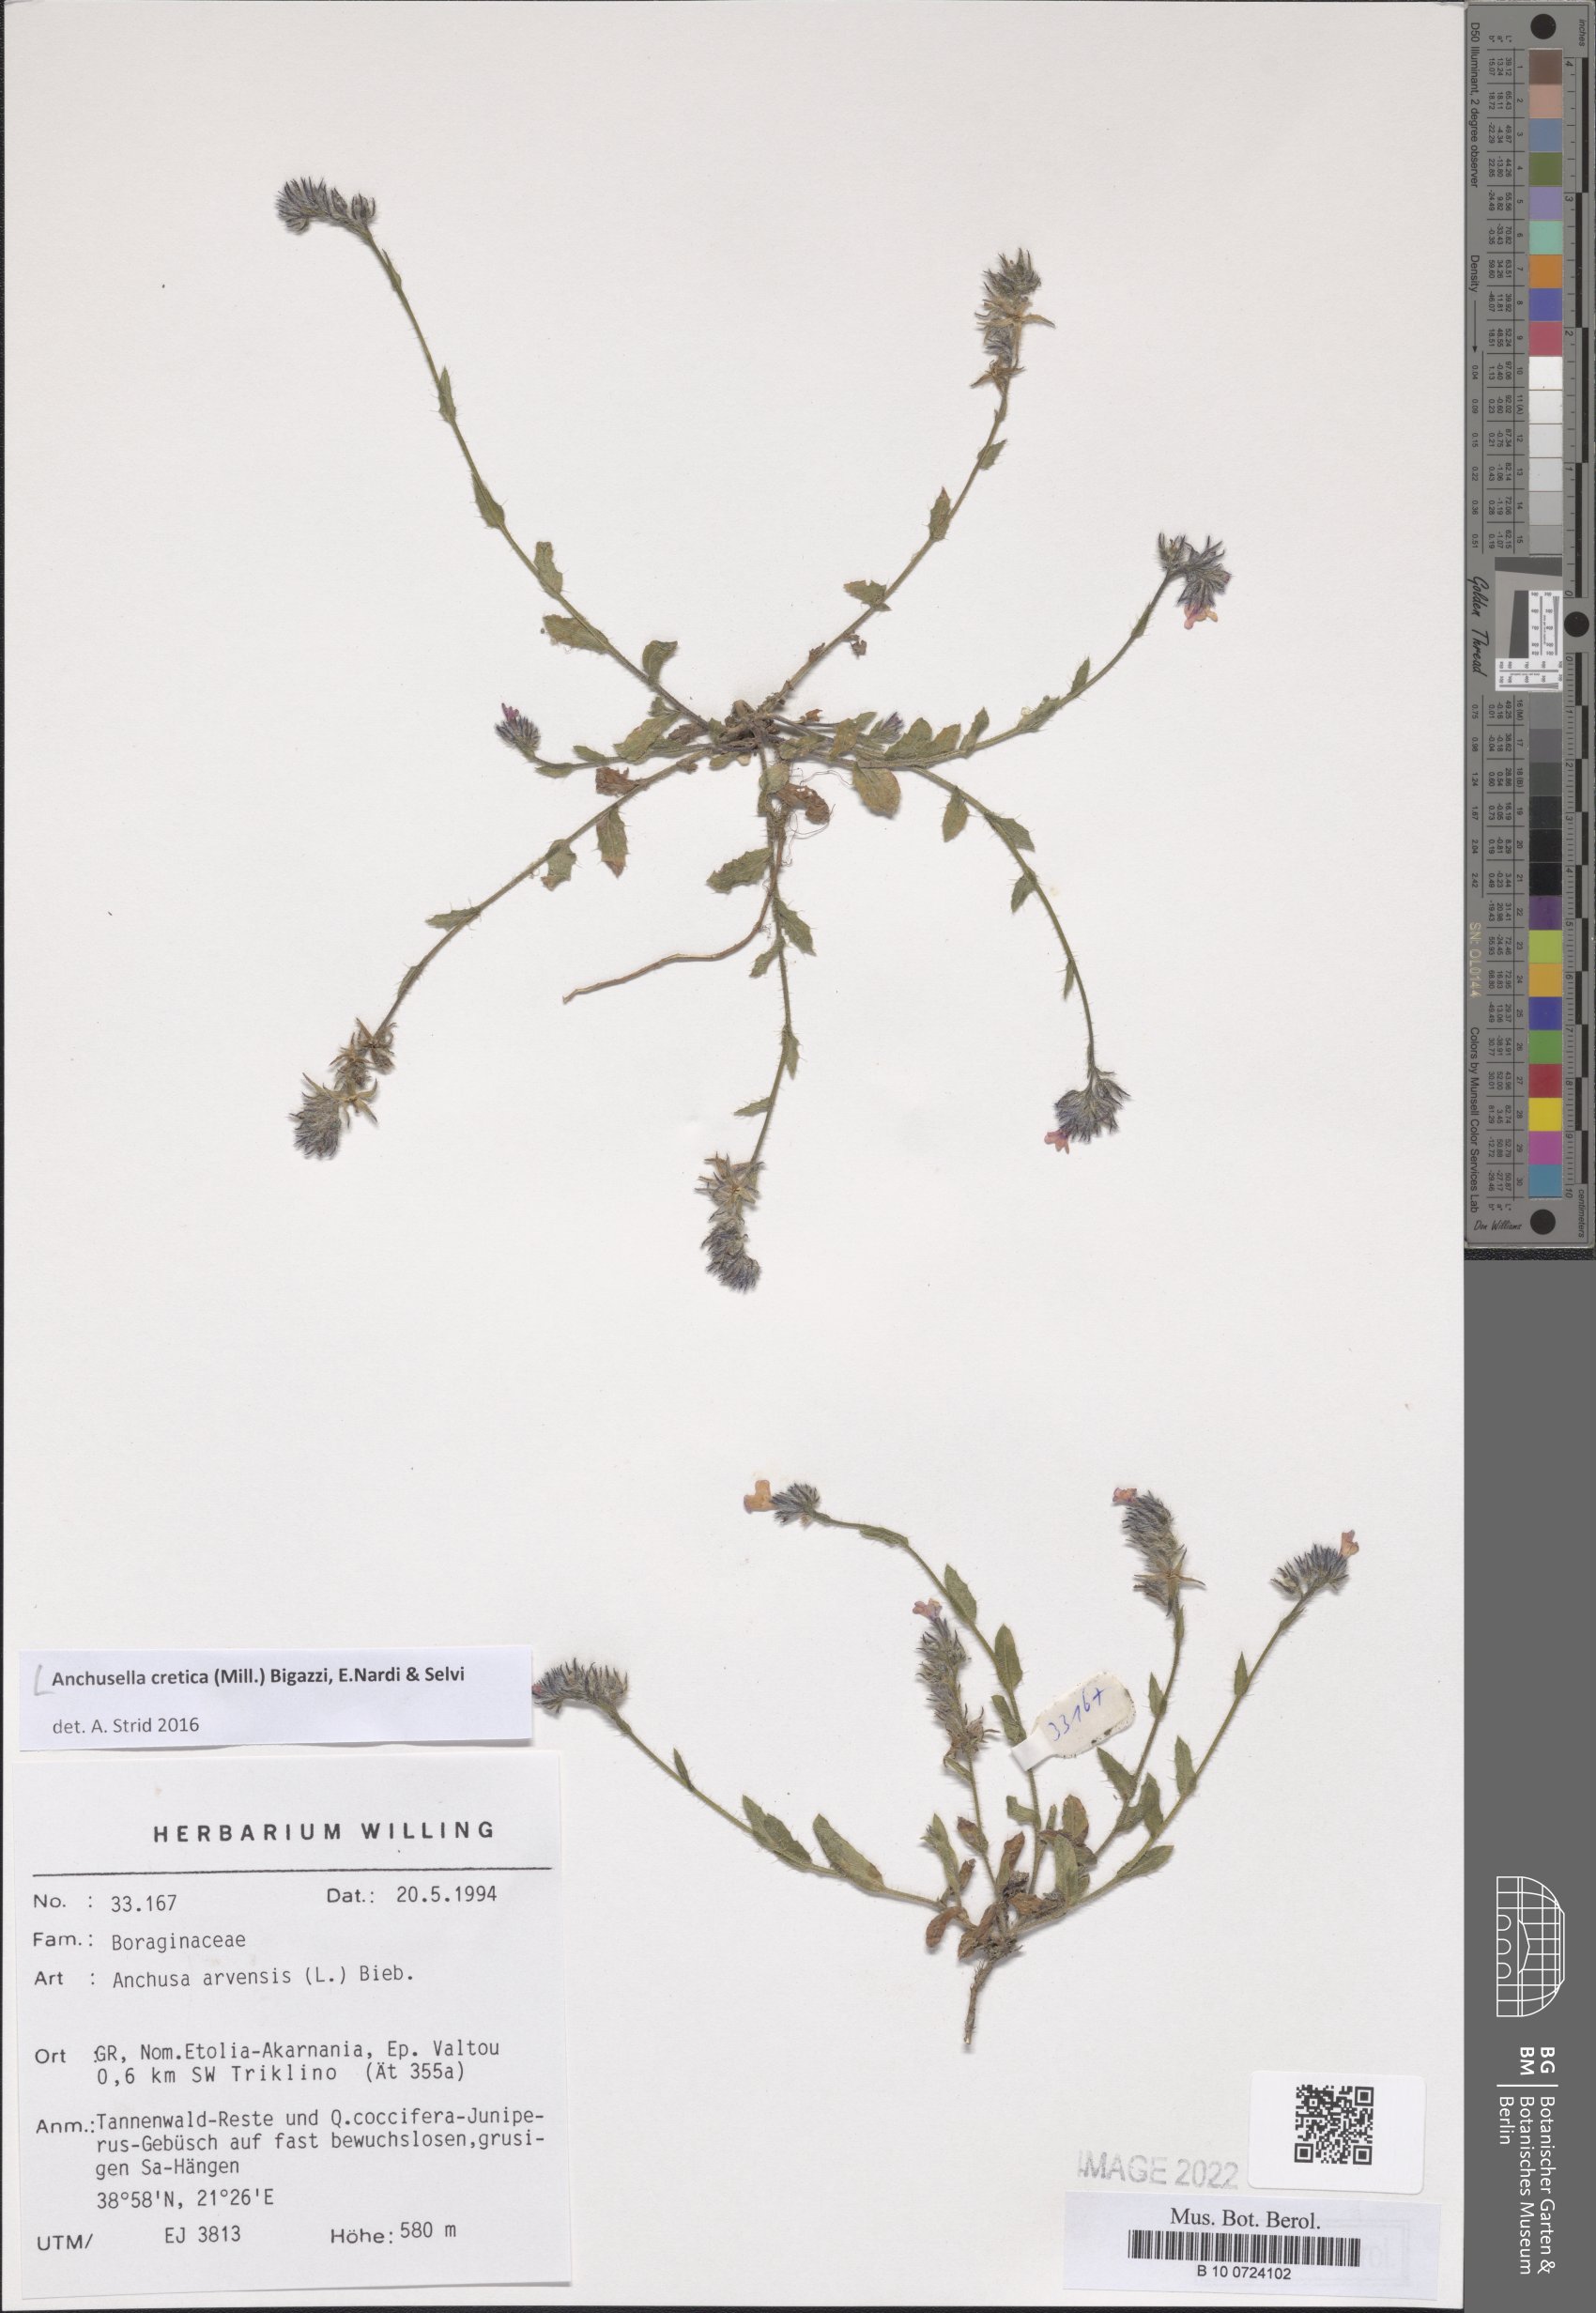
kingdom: Plantae
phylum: Tracheophyta
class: Magnoliopsida
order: Boraginales
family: Boraginaceae
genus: Anchusella
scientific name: Anchusella cretica
